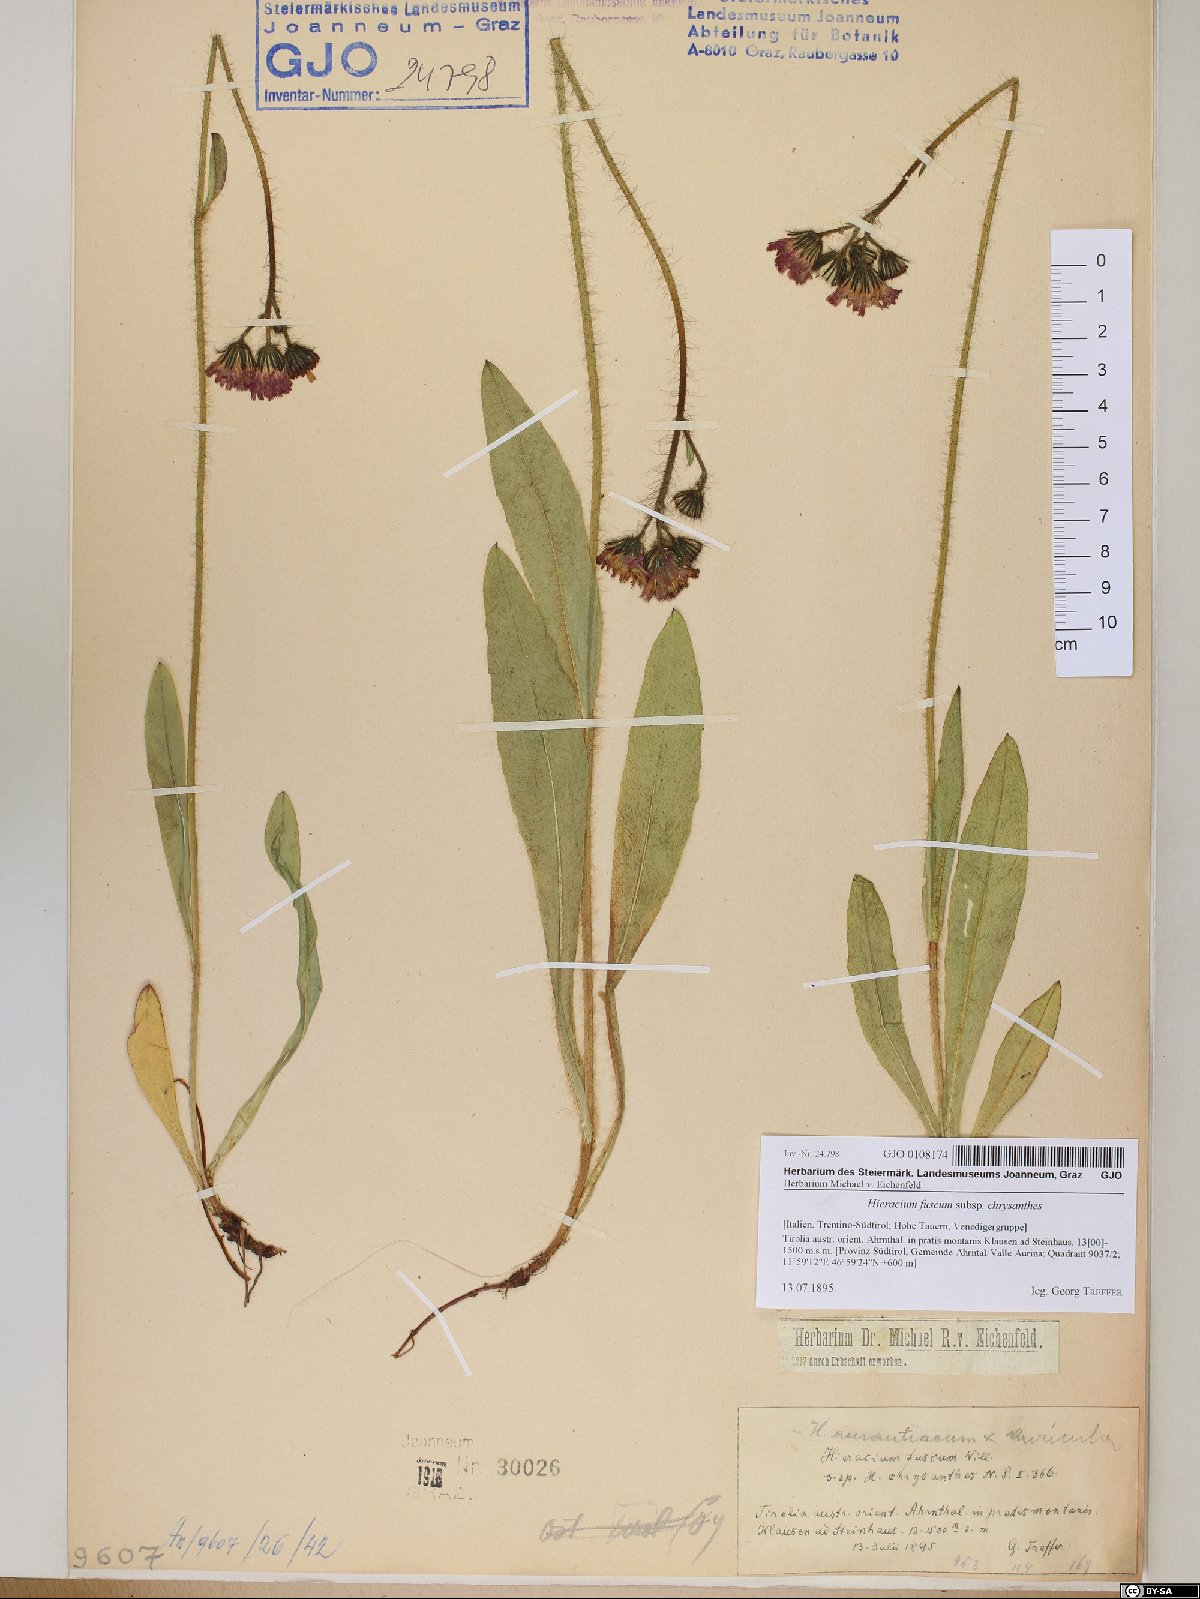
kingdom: Plantae
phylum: Tracheophyta
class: Magnoliopsida
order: Asterales
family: Asteraceae
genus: Pilosella
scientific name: Pilosella fusca
